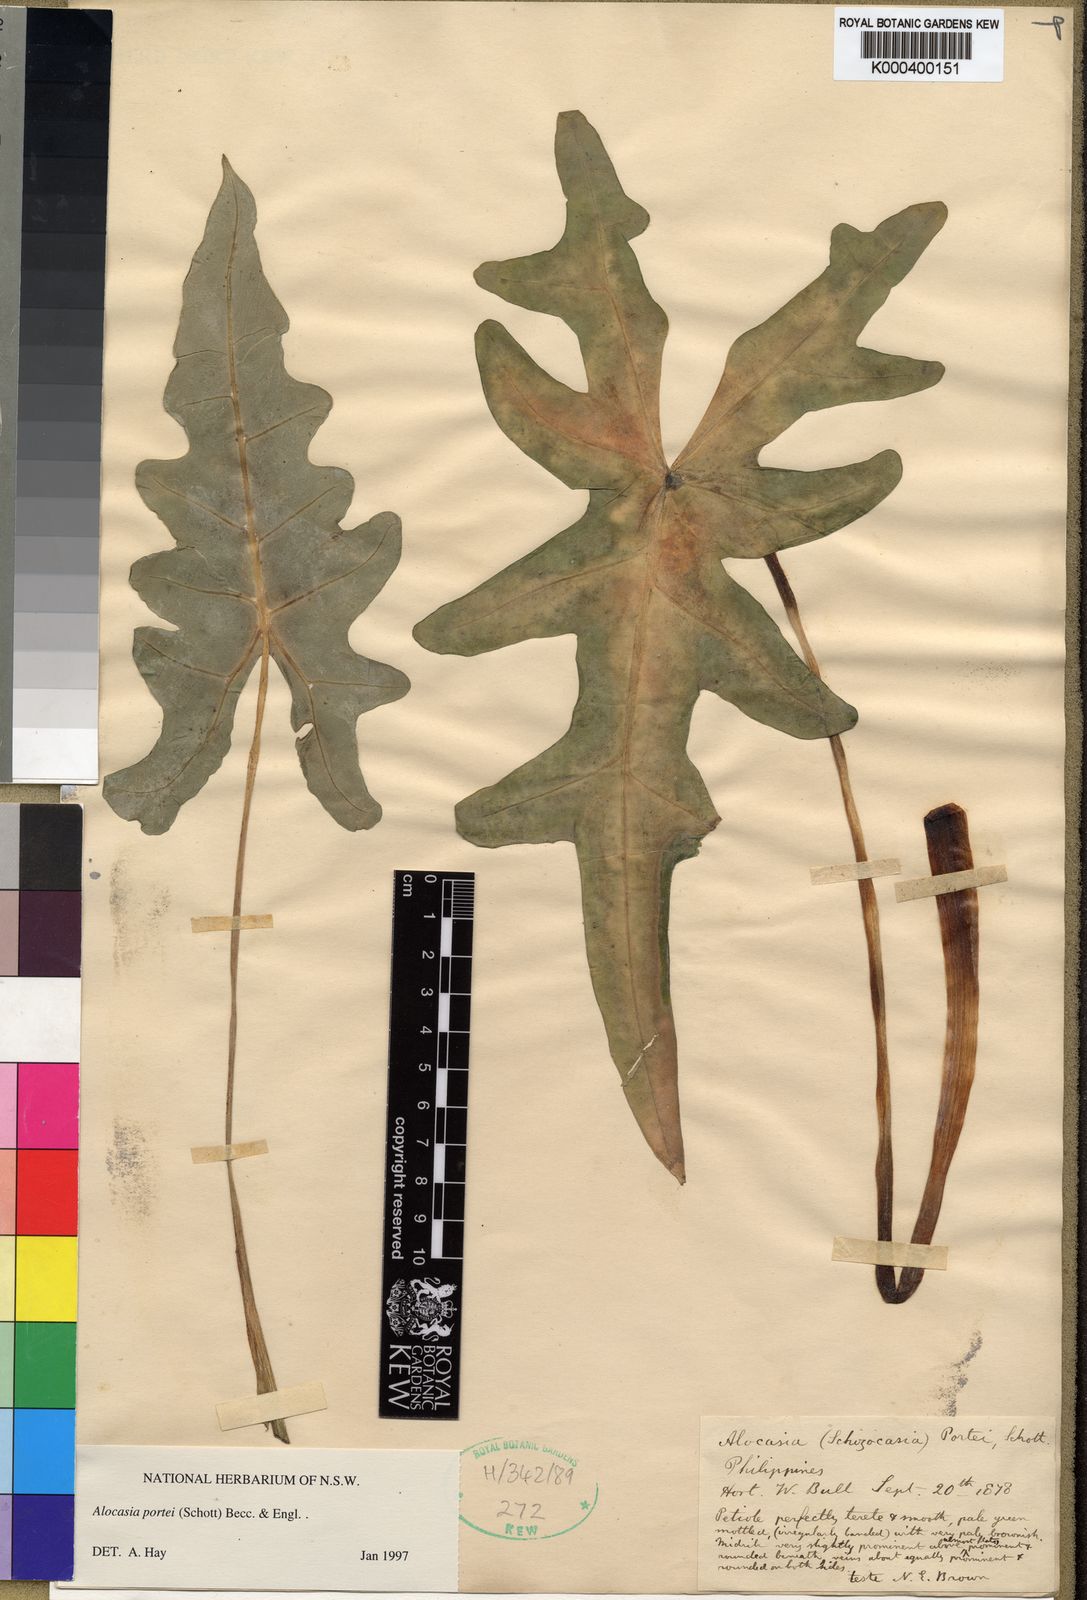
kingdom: Plantae
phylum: Tracheophyta
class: Liliopsida
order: Alismatales
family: Araceae
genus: Alocasia
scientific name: Alocasia portei
